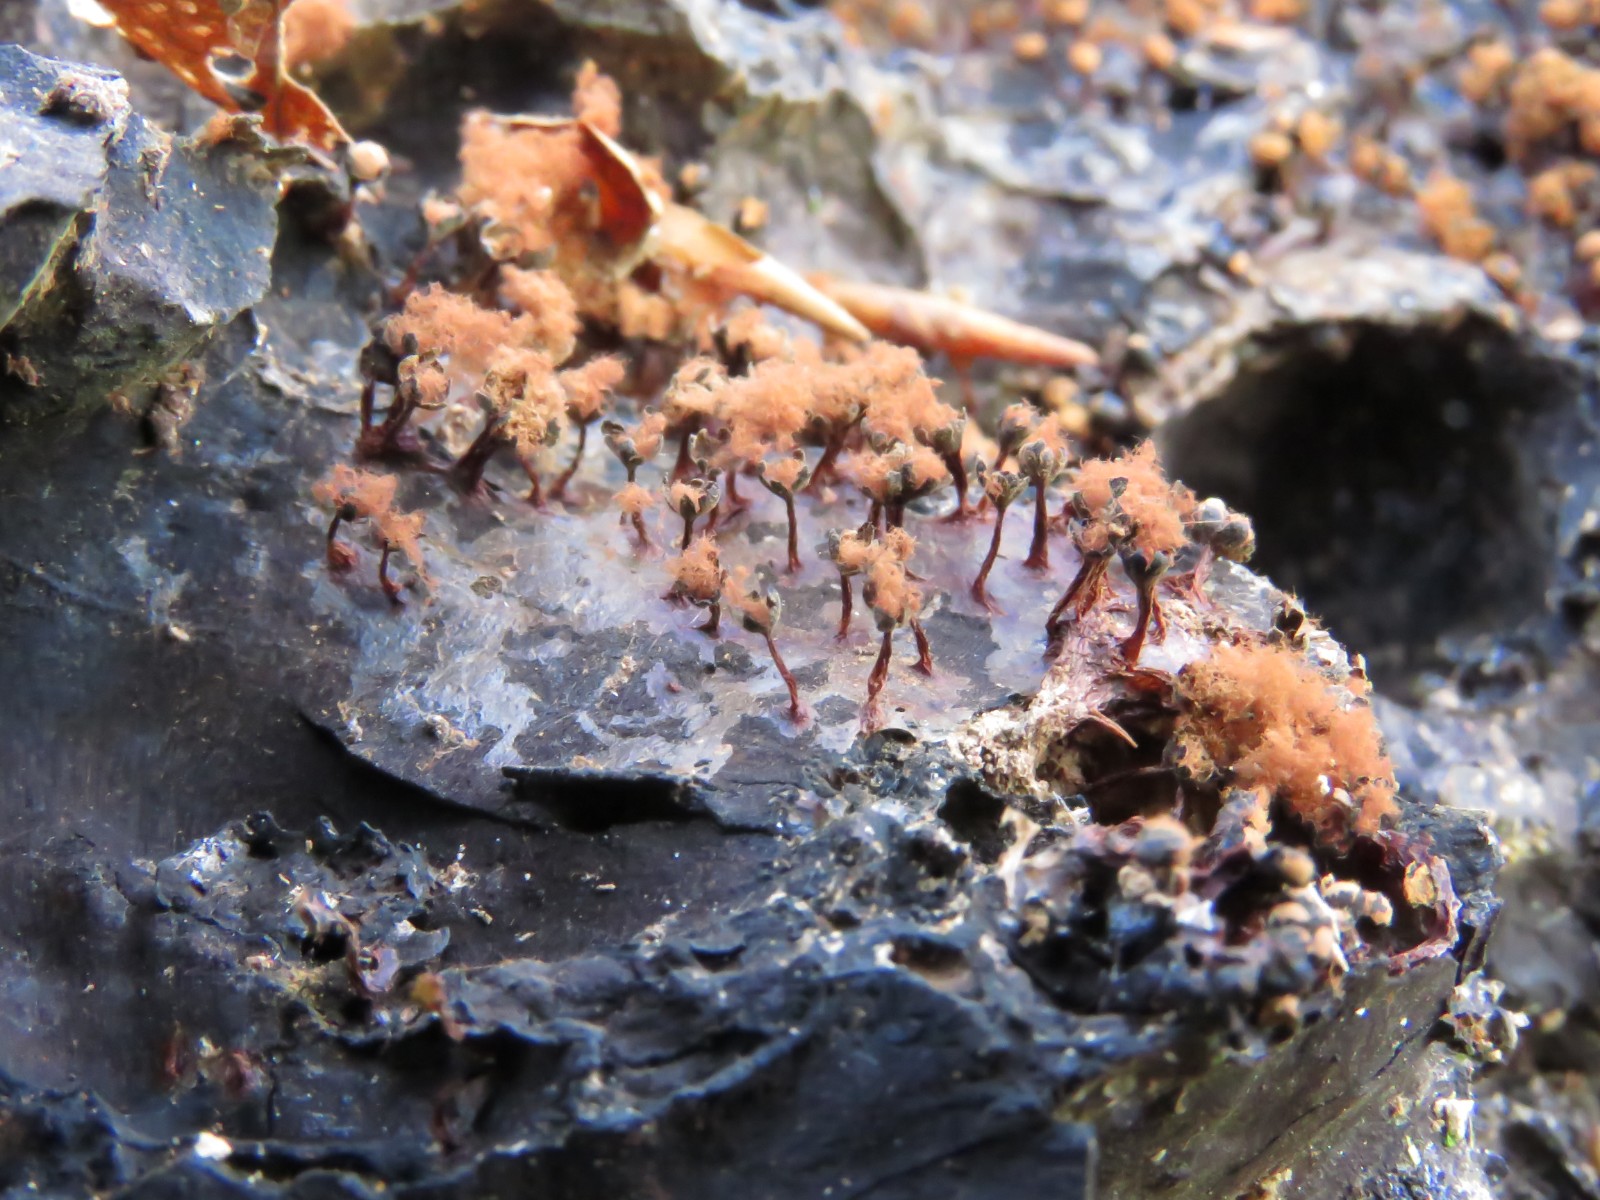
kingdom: Protozoa
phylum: Mycetozoa
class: Myxomycetes
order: Trichiales
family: Trichiaceae
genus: Metatrichia
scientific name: Metatrichia floriformis
